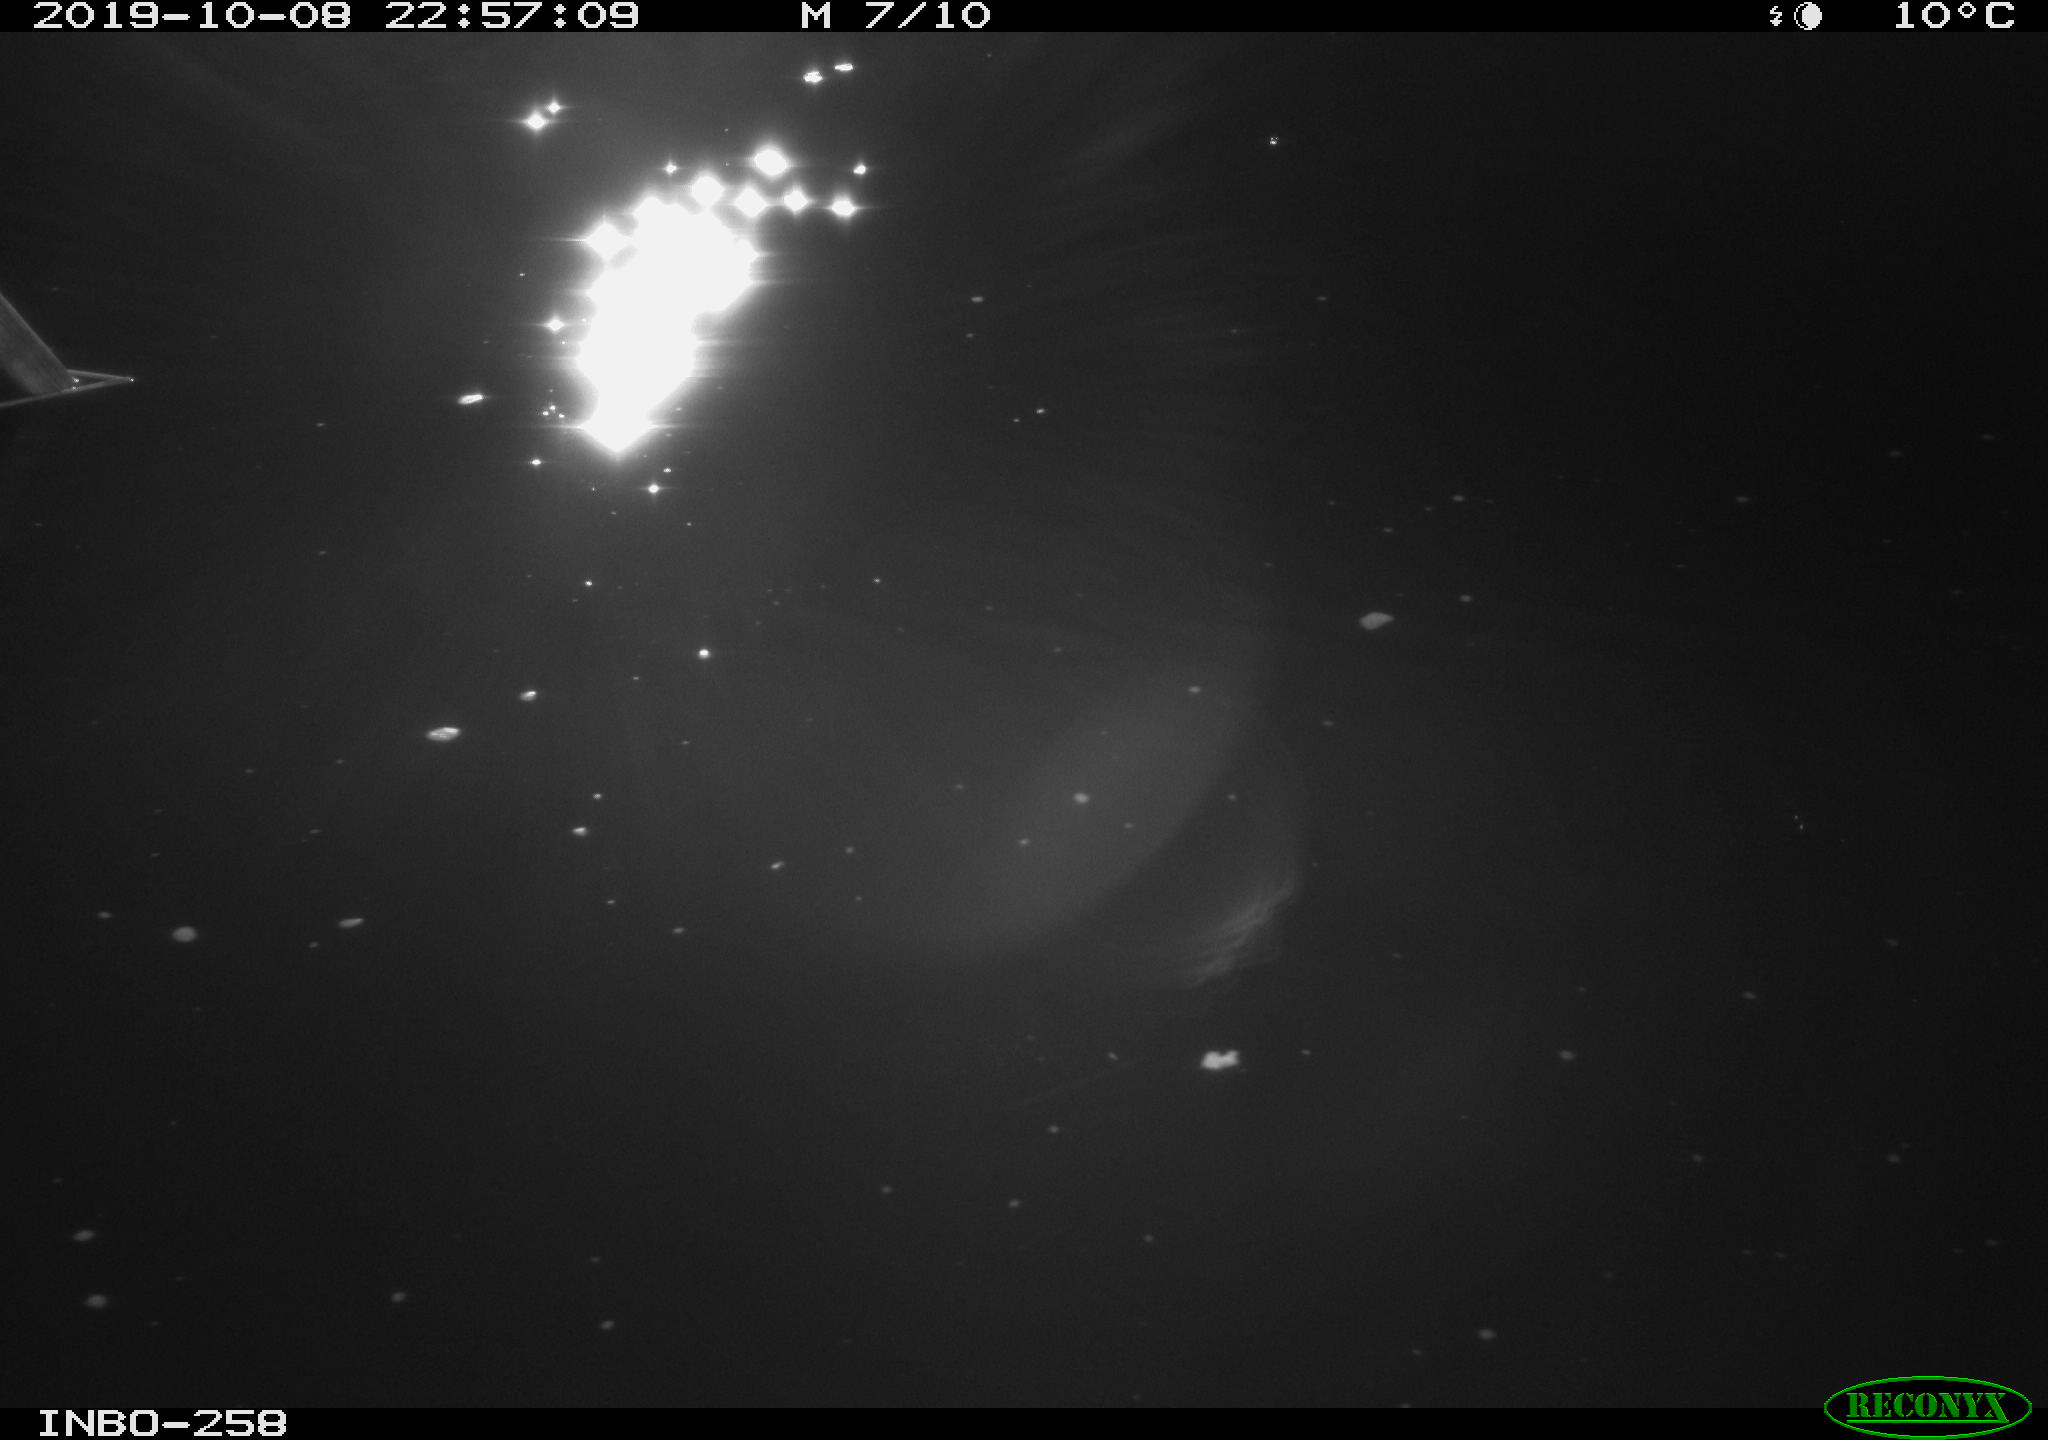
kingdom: Animalia
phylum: Chordata
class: Aves
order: Anseriformes
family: Anatidae
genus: Anas
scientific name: Anas platyrhynchos
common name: Mallard
